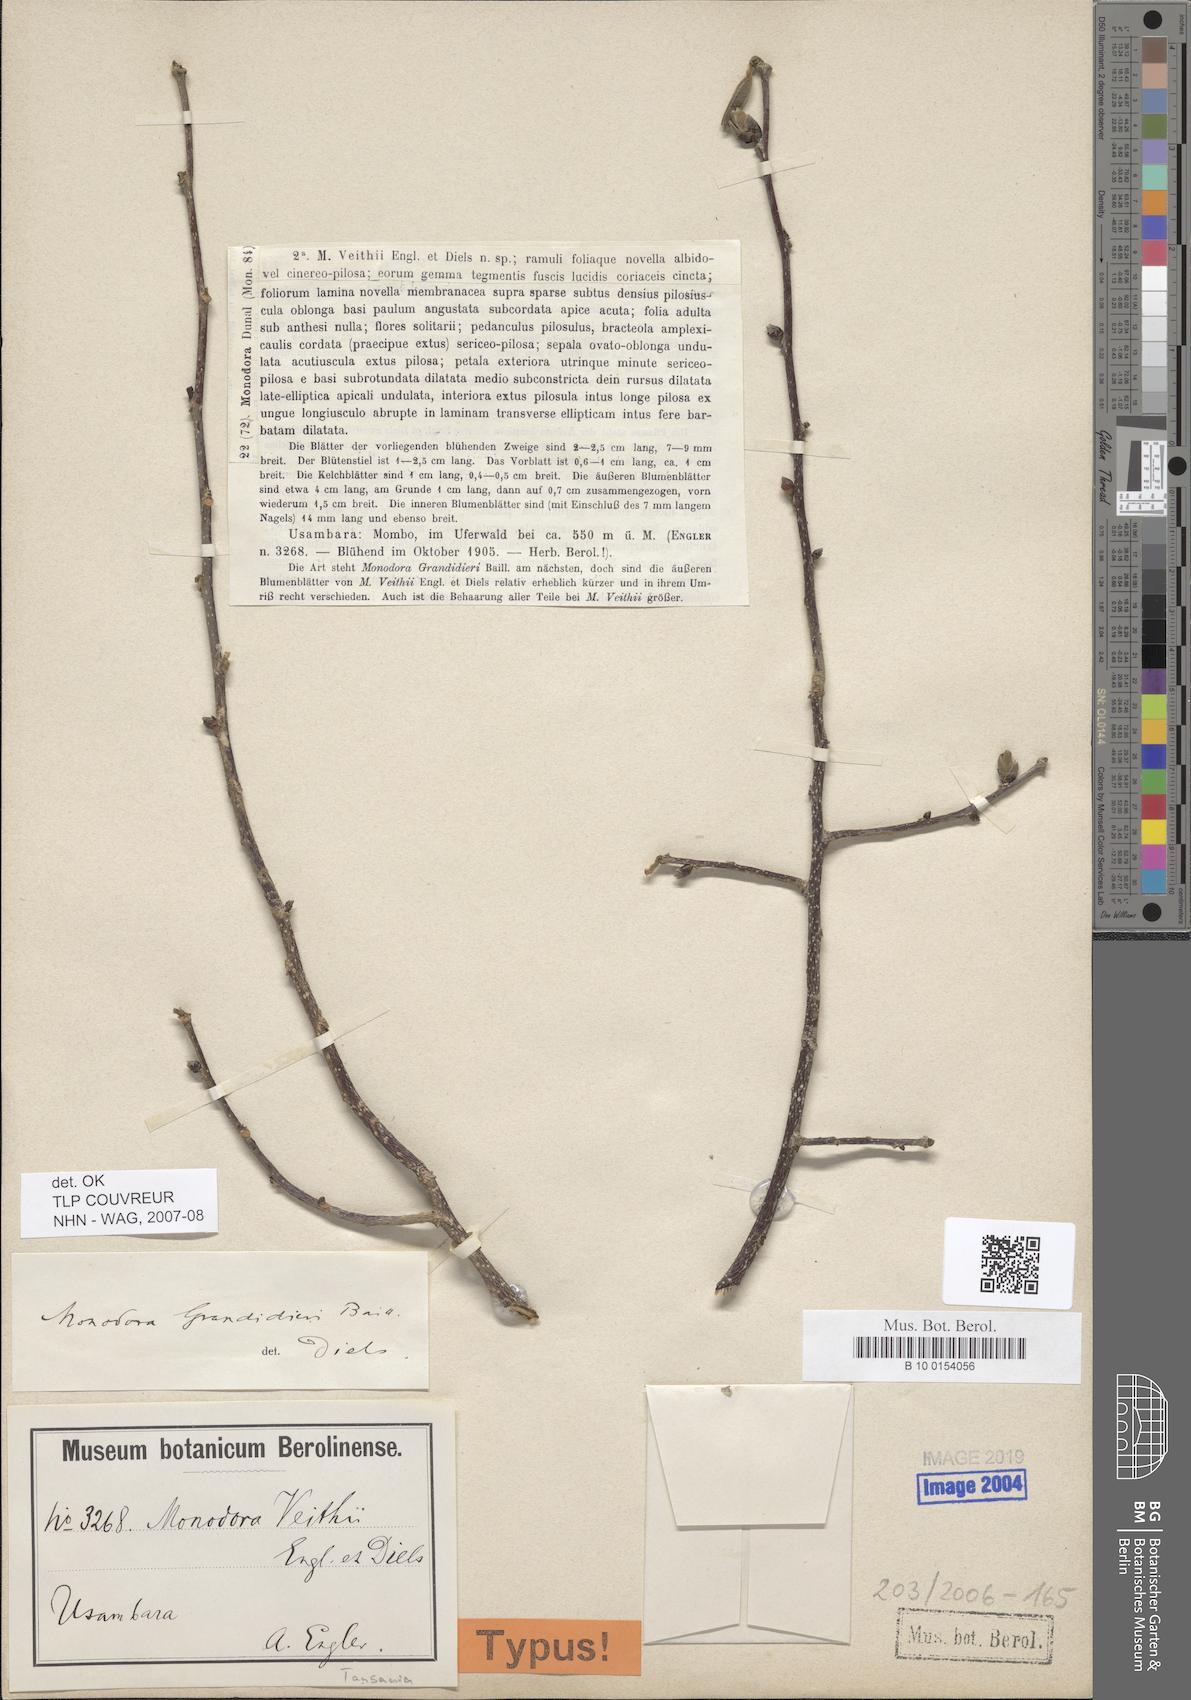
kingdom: Plantae
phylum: Tracheophyta
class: Magnoliopsida
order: Magnoliales
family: Annonaceae
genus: Monodora
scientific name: Monodora grandidieri
